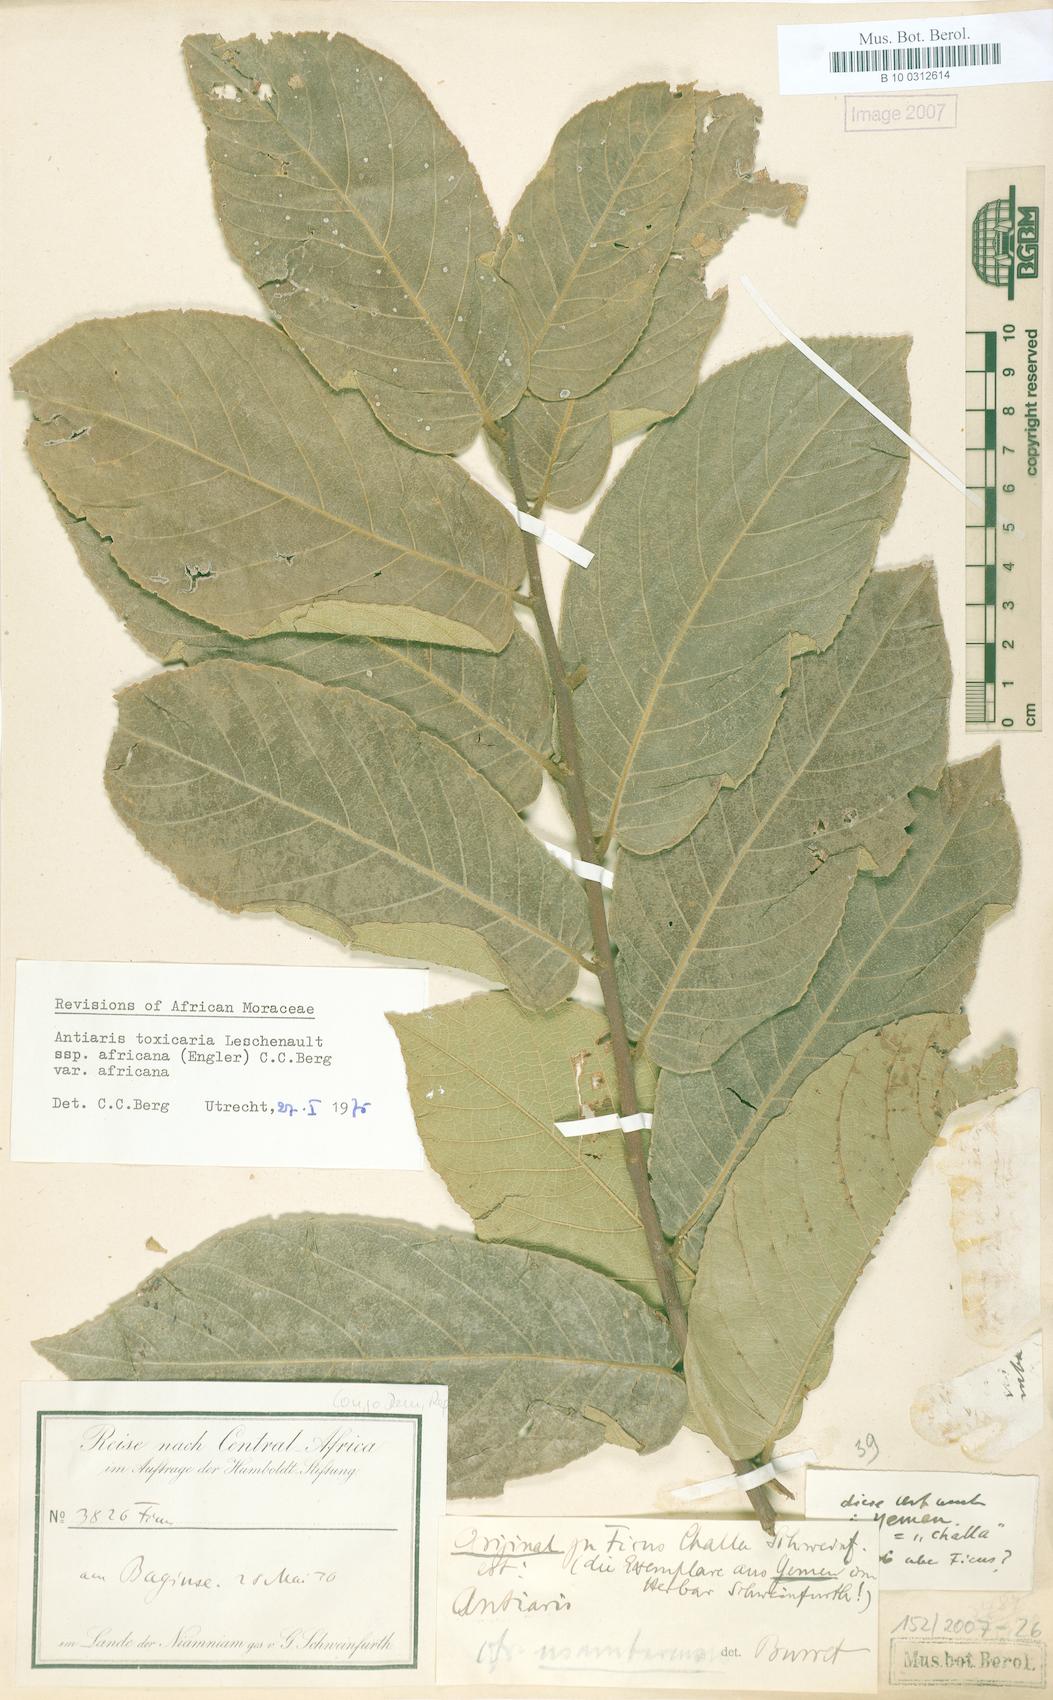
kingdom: Plantae
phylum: Tracheophyta
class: Magnoliopsida
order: Rosales
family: Moraceae
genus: Antiaris
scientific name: Antiaris toxicaria
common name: Sackingtree
